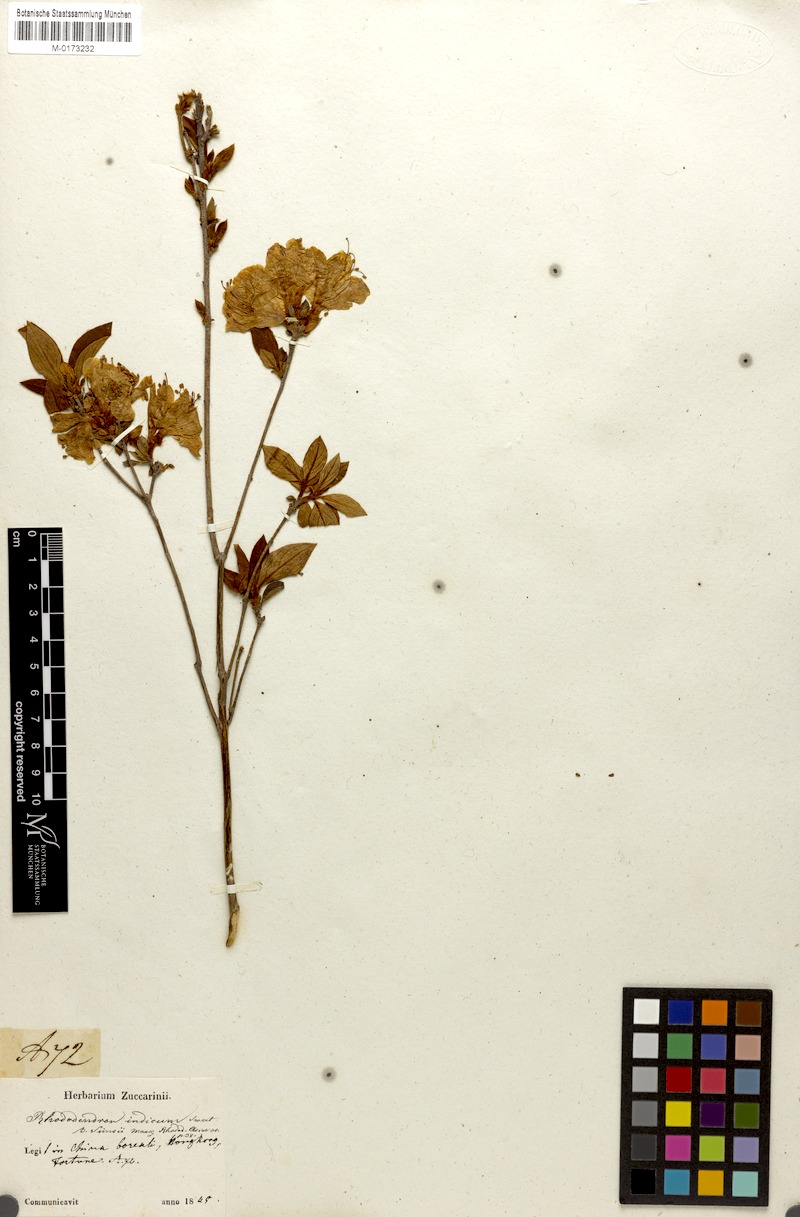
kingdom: Plantae
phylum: Tracheophyta
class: Magnoliopsida
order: Ericales
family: Ericaceae
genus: Rhododendron
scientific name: Rhododendron
